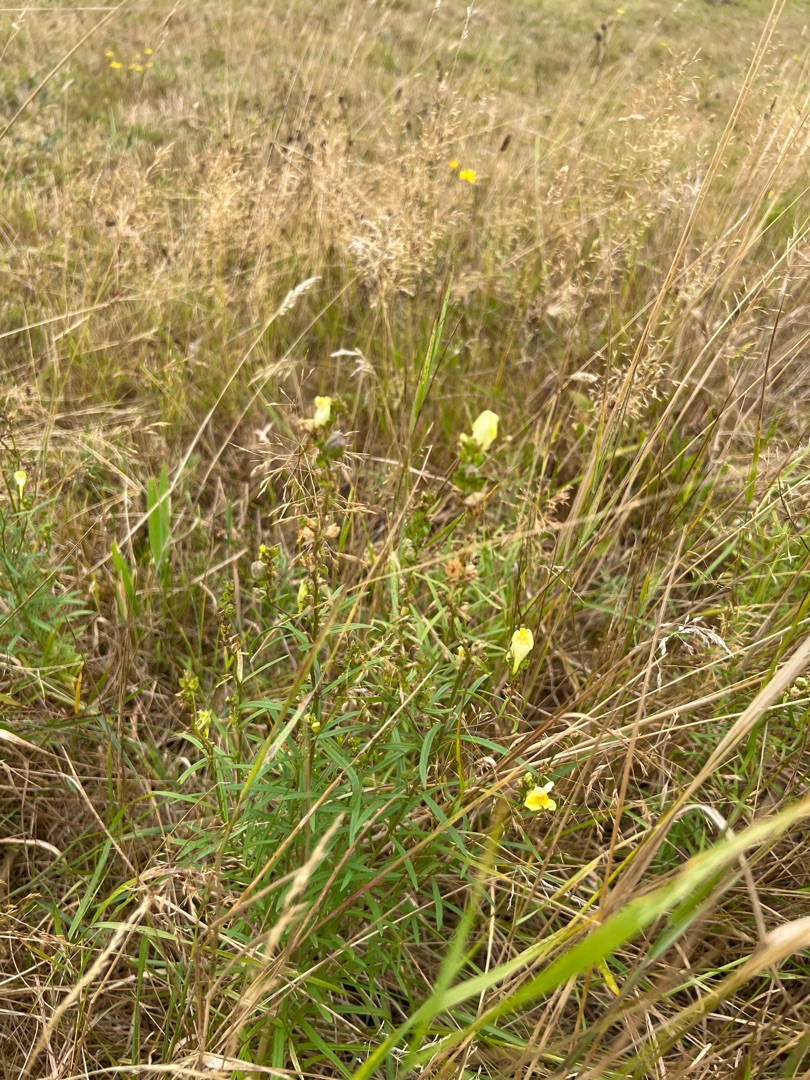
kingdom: Plantae
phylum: Tracheophyta
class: Magnoliopsida
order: Lamiales
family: Plantaginaceae
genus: Linaria
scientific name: Linaria vulgaris
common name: Almindelig torskemund
